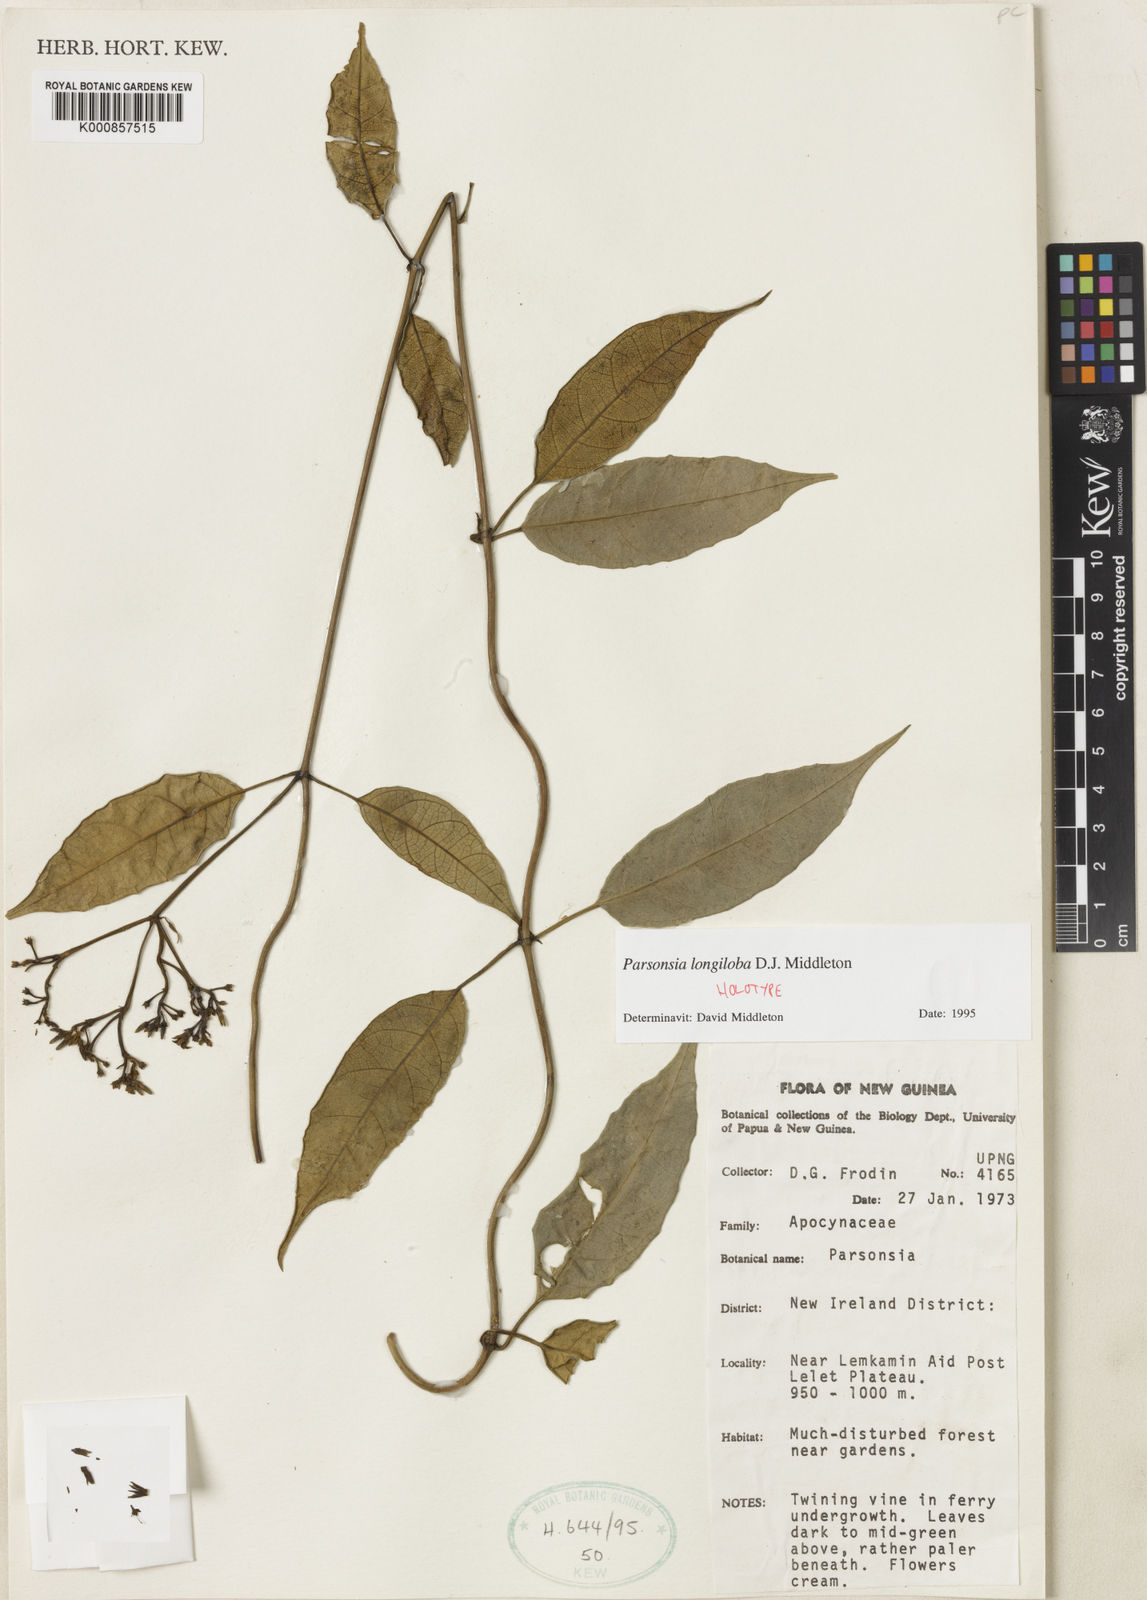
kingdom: Plantae
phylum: Tracheophyta
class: Magnoliopsida
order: Gentianales
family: Apocynaceae
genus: Parsonsia
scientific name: Parsonsia longiloba
